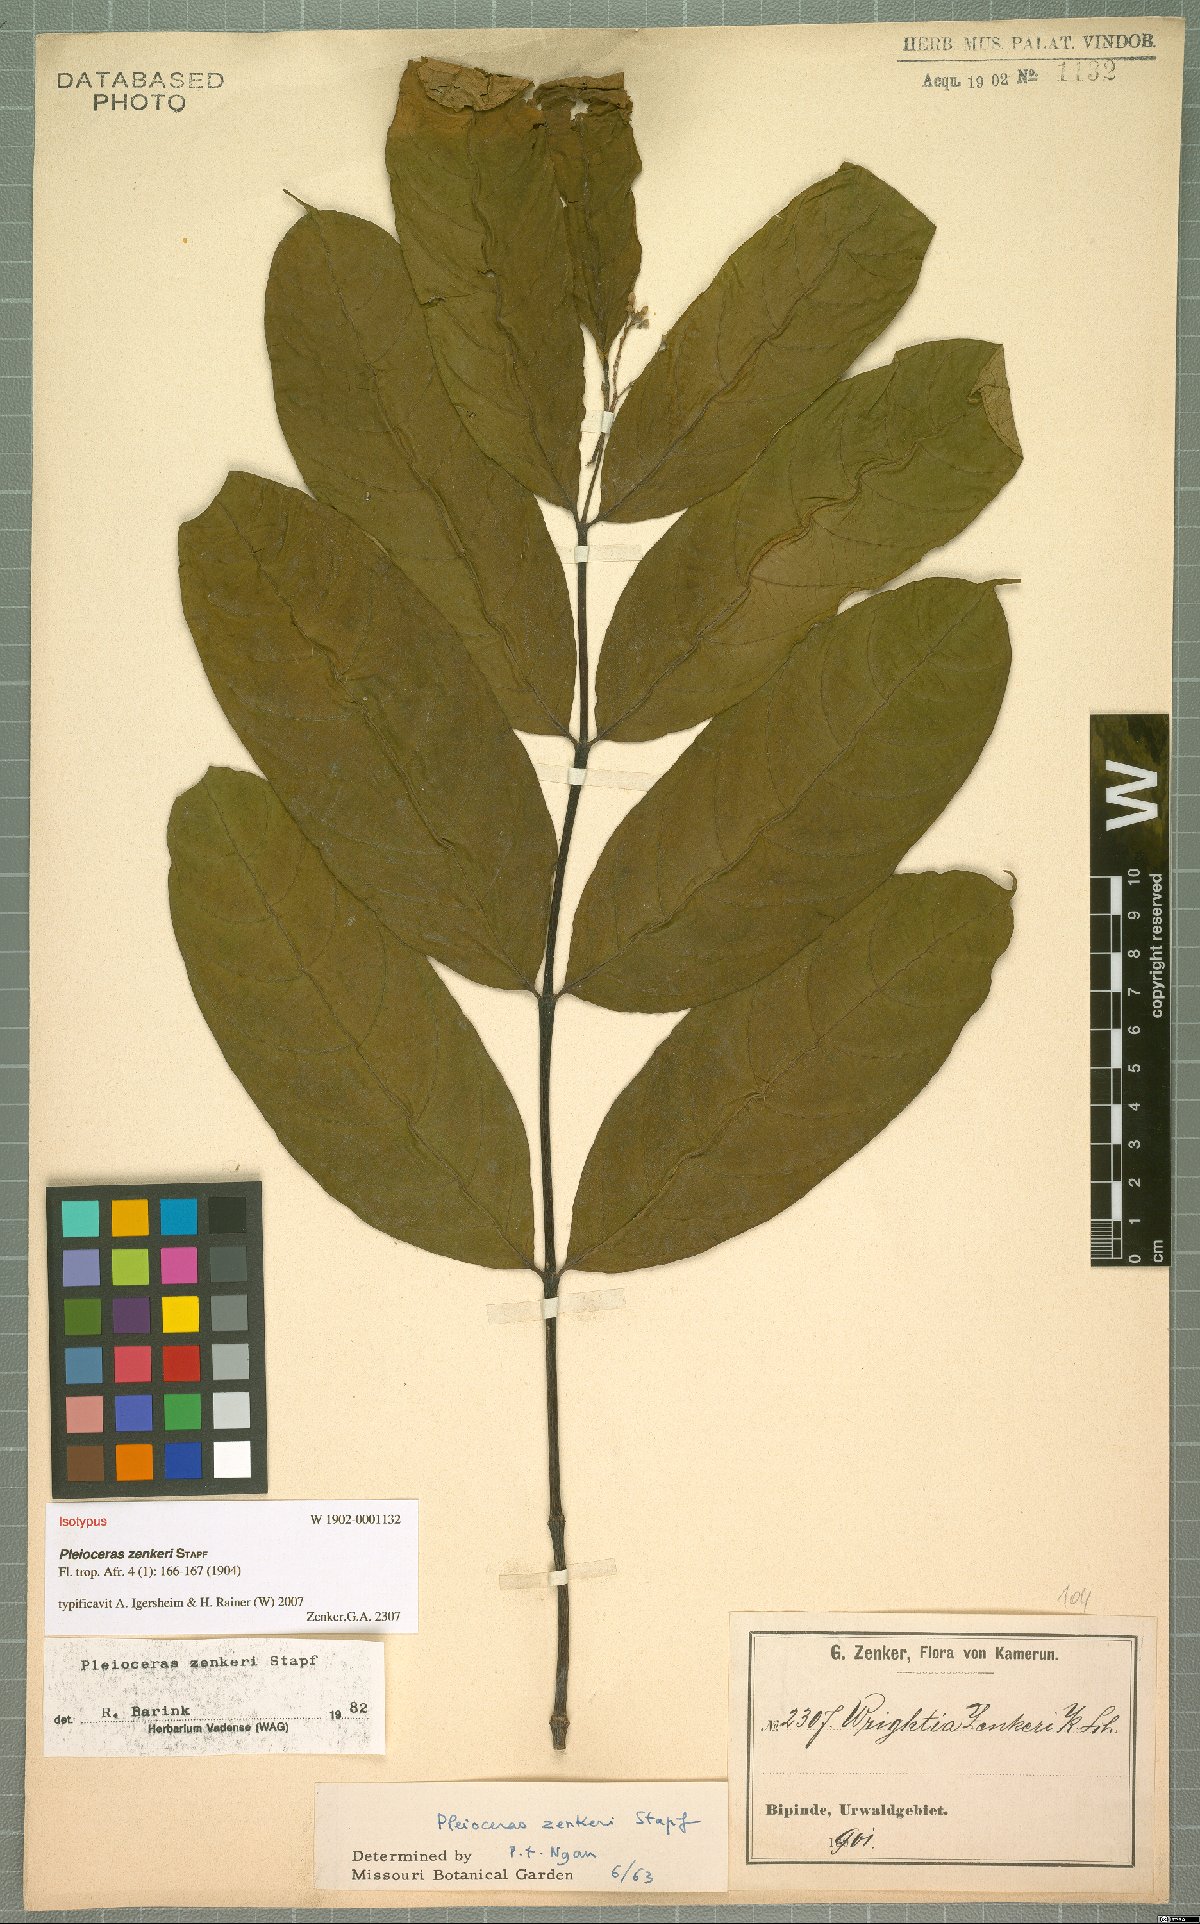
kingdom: Plantae
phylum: Tracheophyta
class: Magnoliopsida
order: Gentianales
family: Apocynaceae
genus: Pleioceras
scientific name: Pleioceras zenkeri
